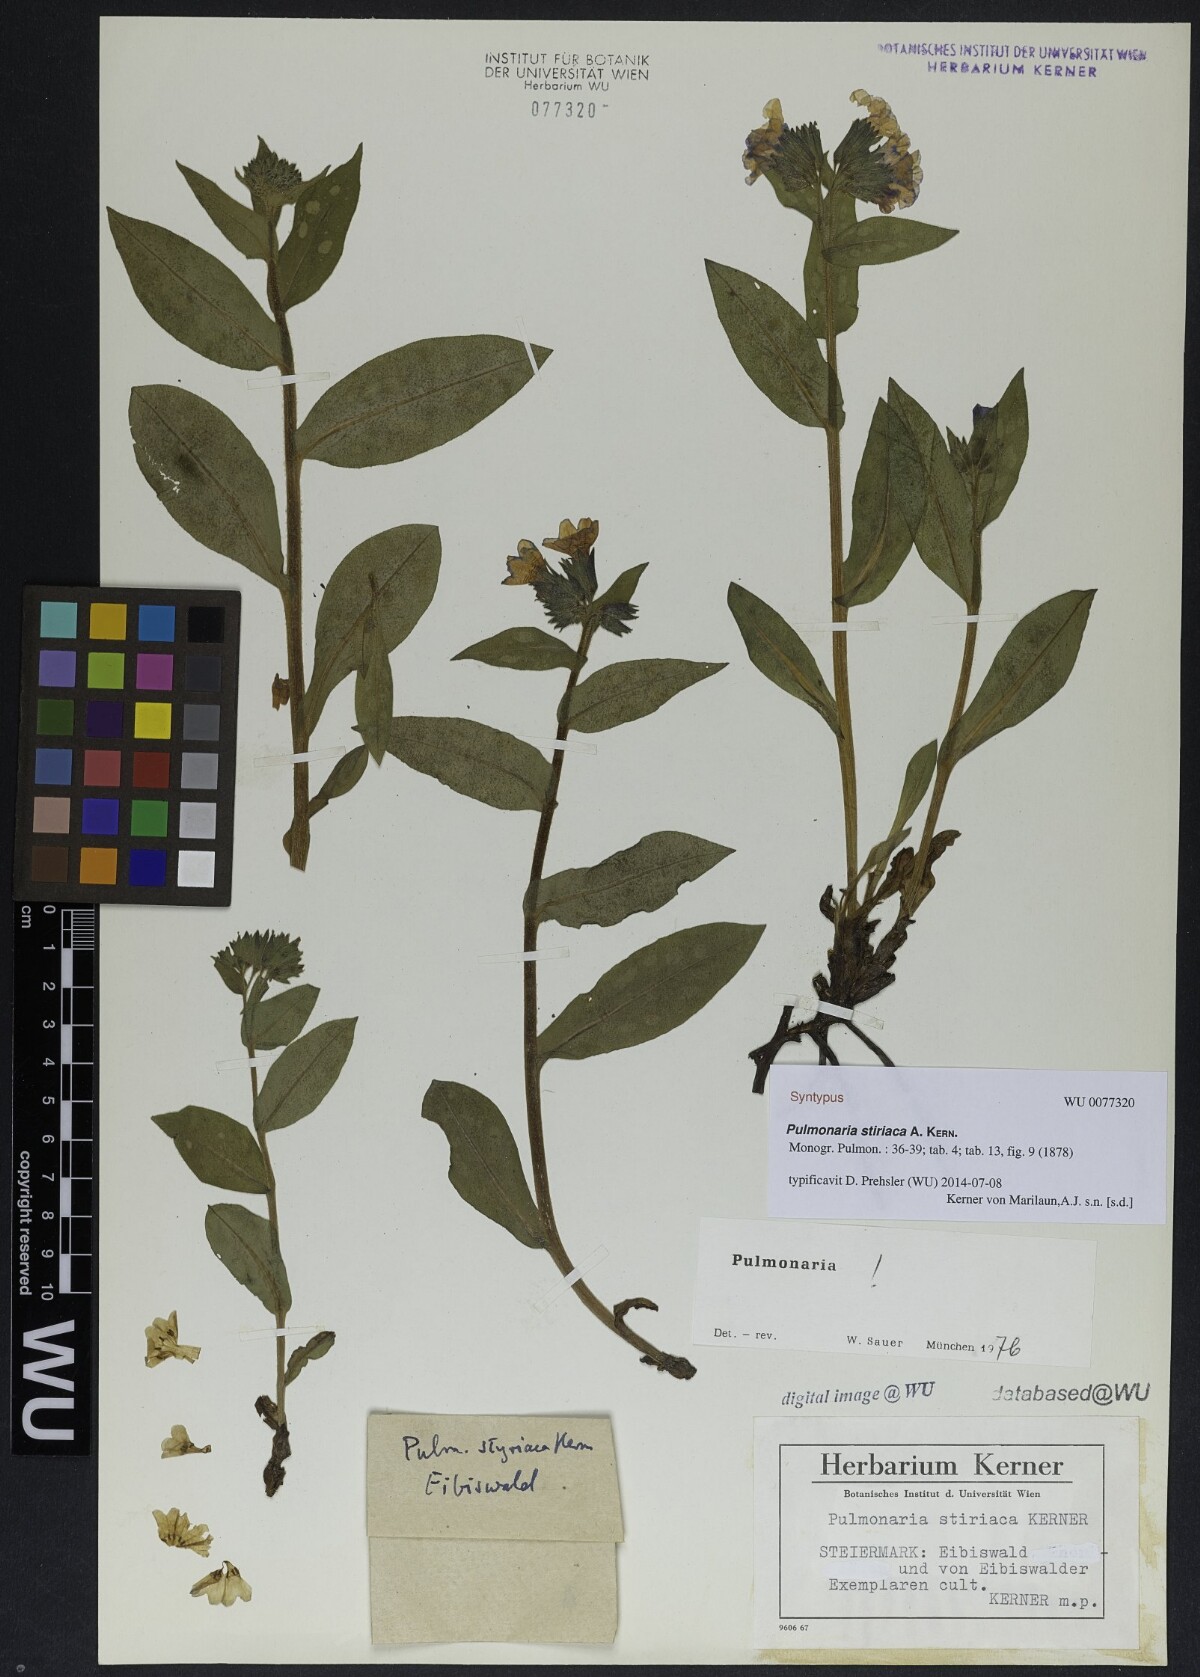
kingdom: Plantae
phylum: Tracheophyta
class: Magnoliopsida
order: Boraginales
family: Boraginaceae
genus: Pulmonaria
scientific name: Pulmonaria stiriaca
